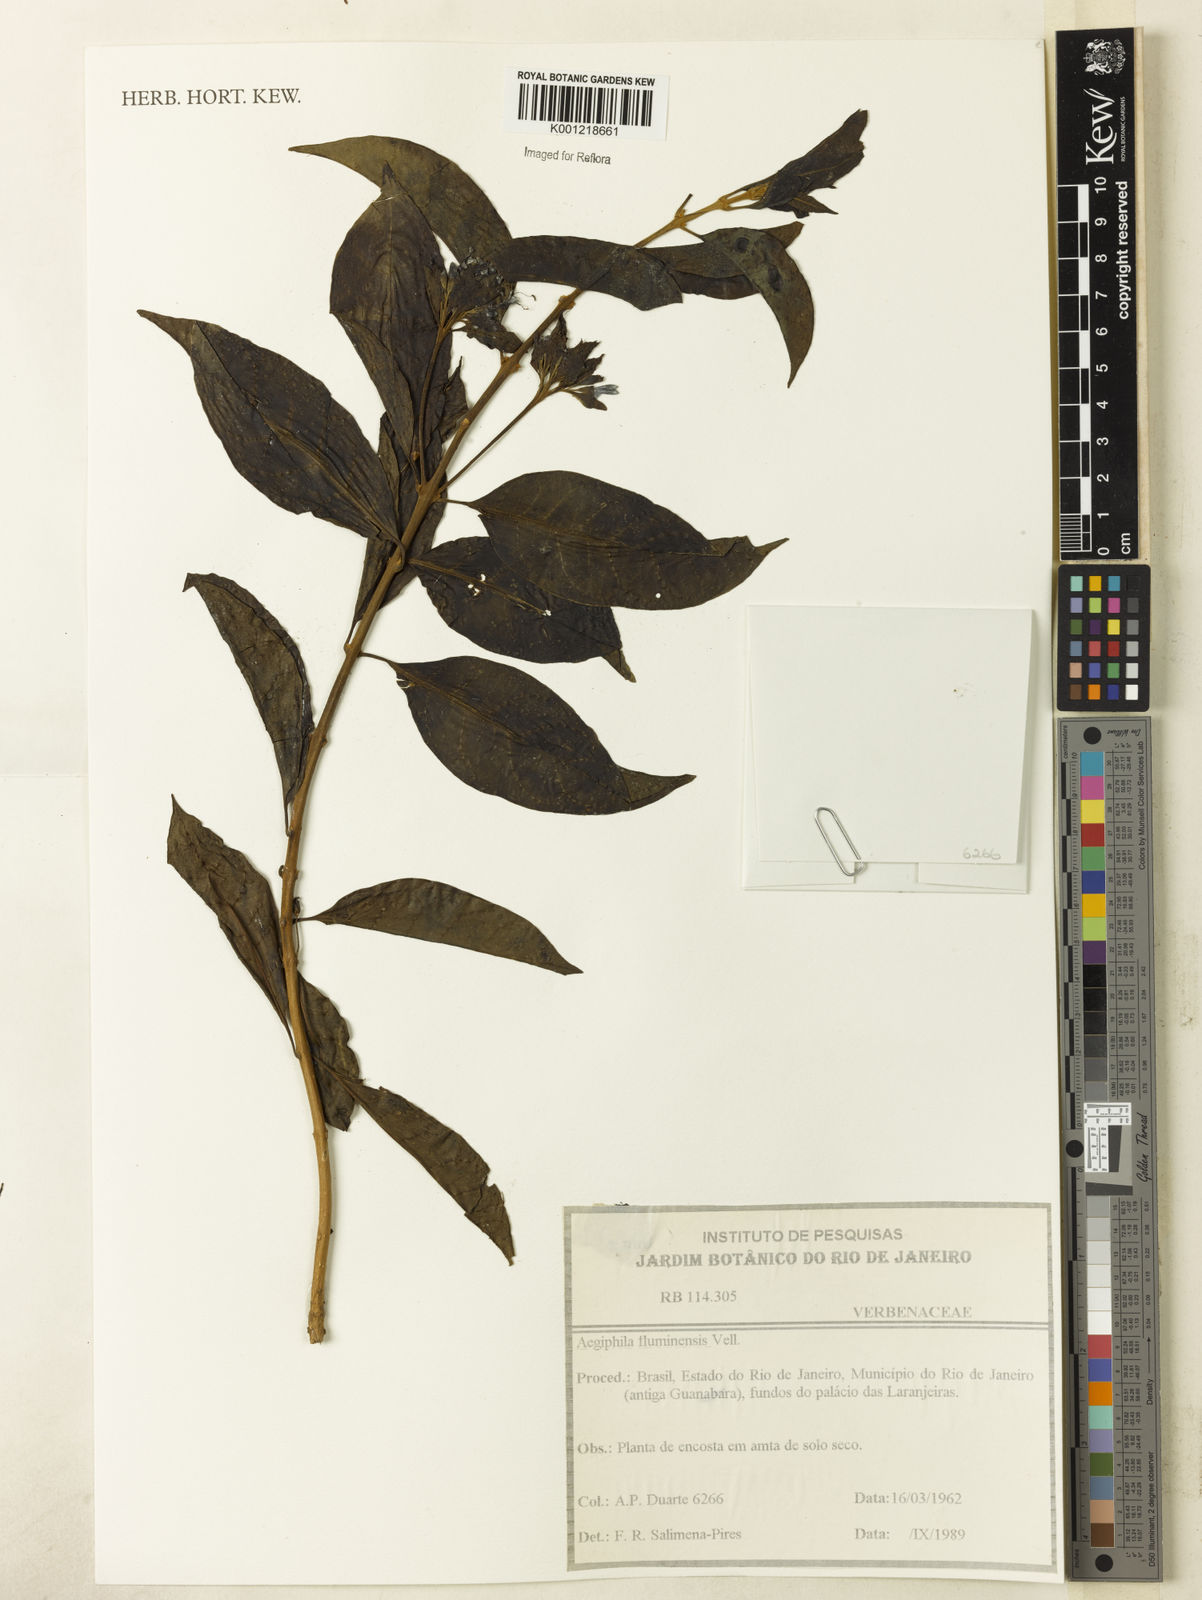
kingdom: Plantae
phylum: Tracheophyta
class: Magnoliopsida
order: Lamiales
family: Lamiaceae
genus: Aegiphila
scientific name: Aegiphila fluminensis
